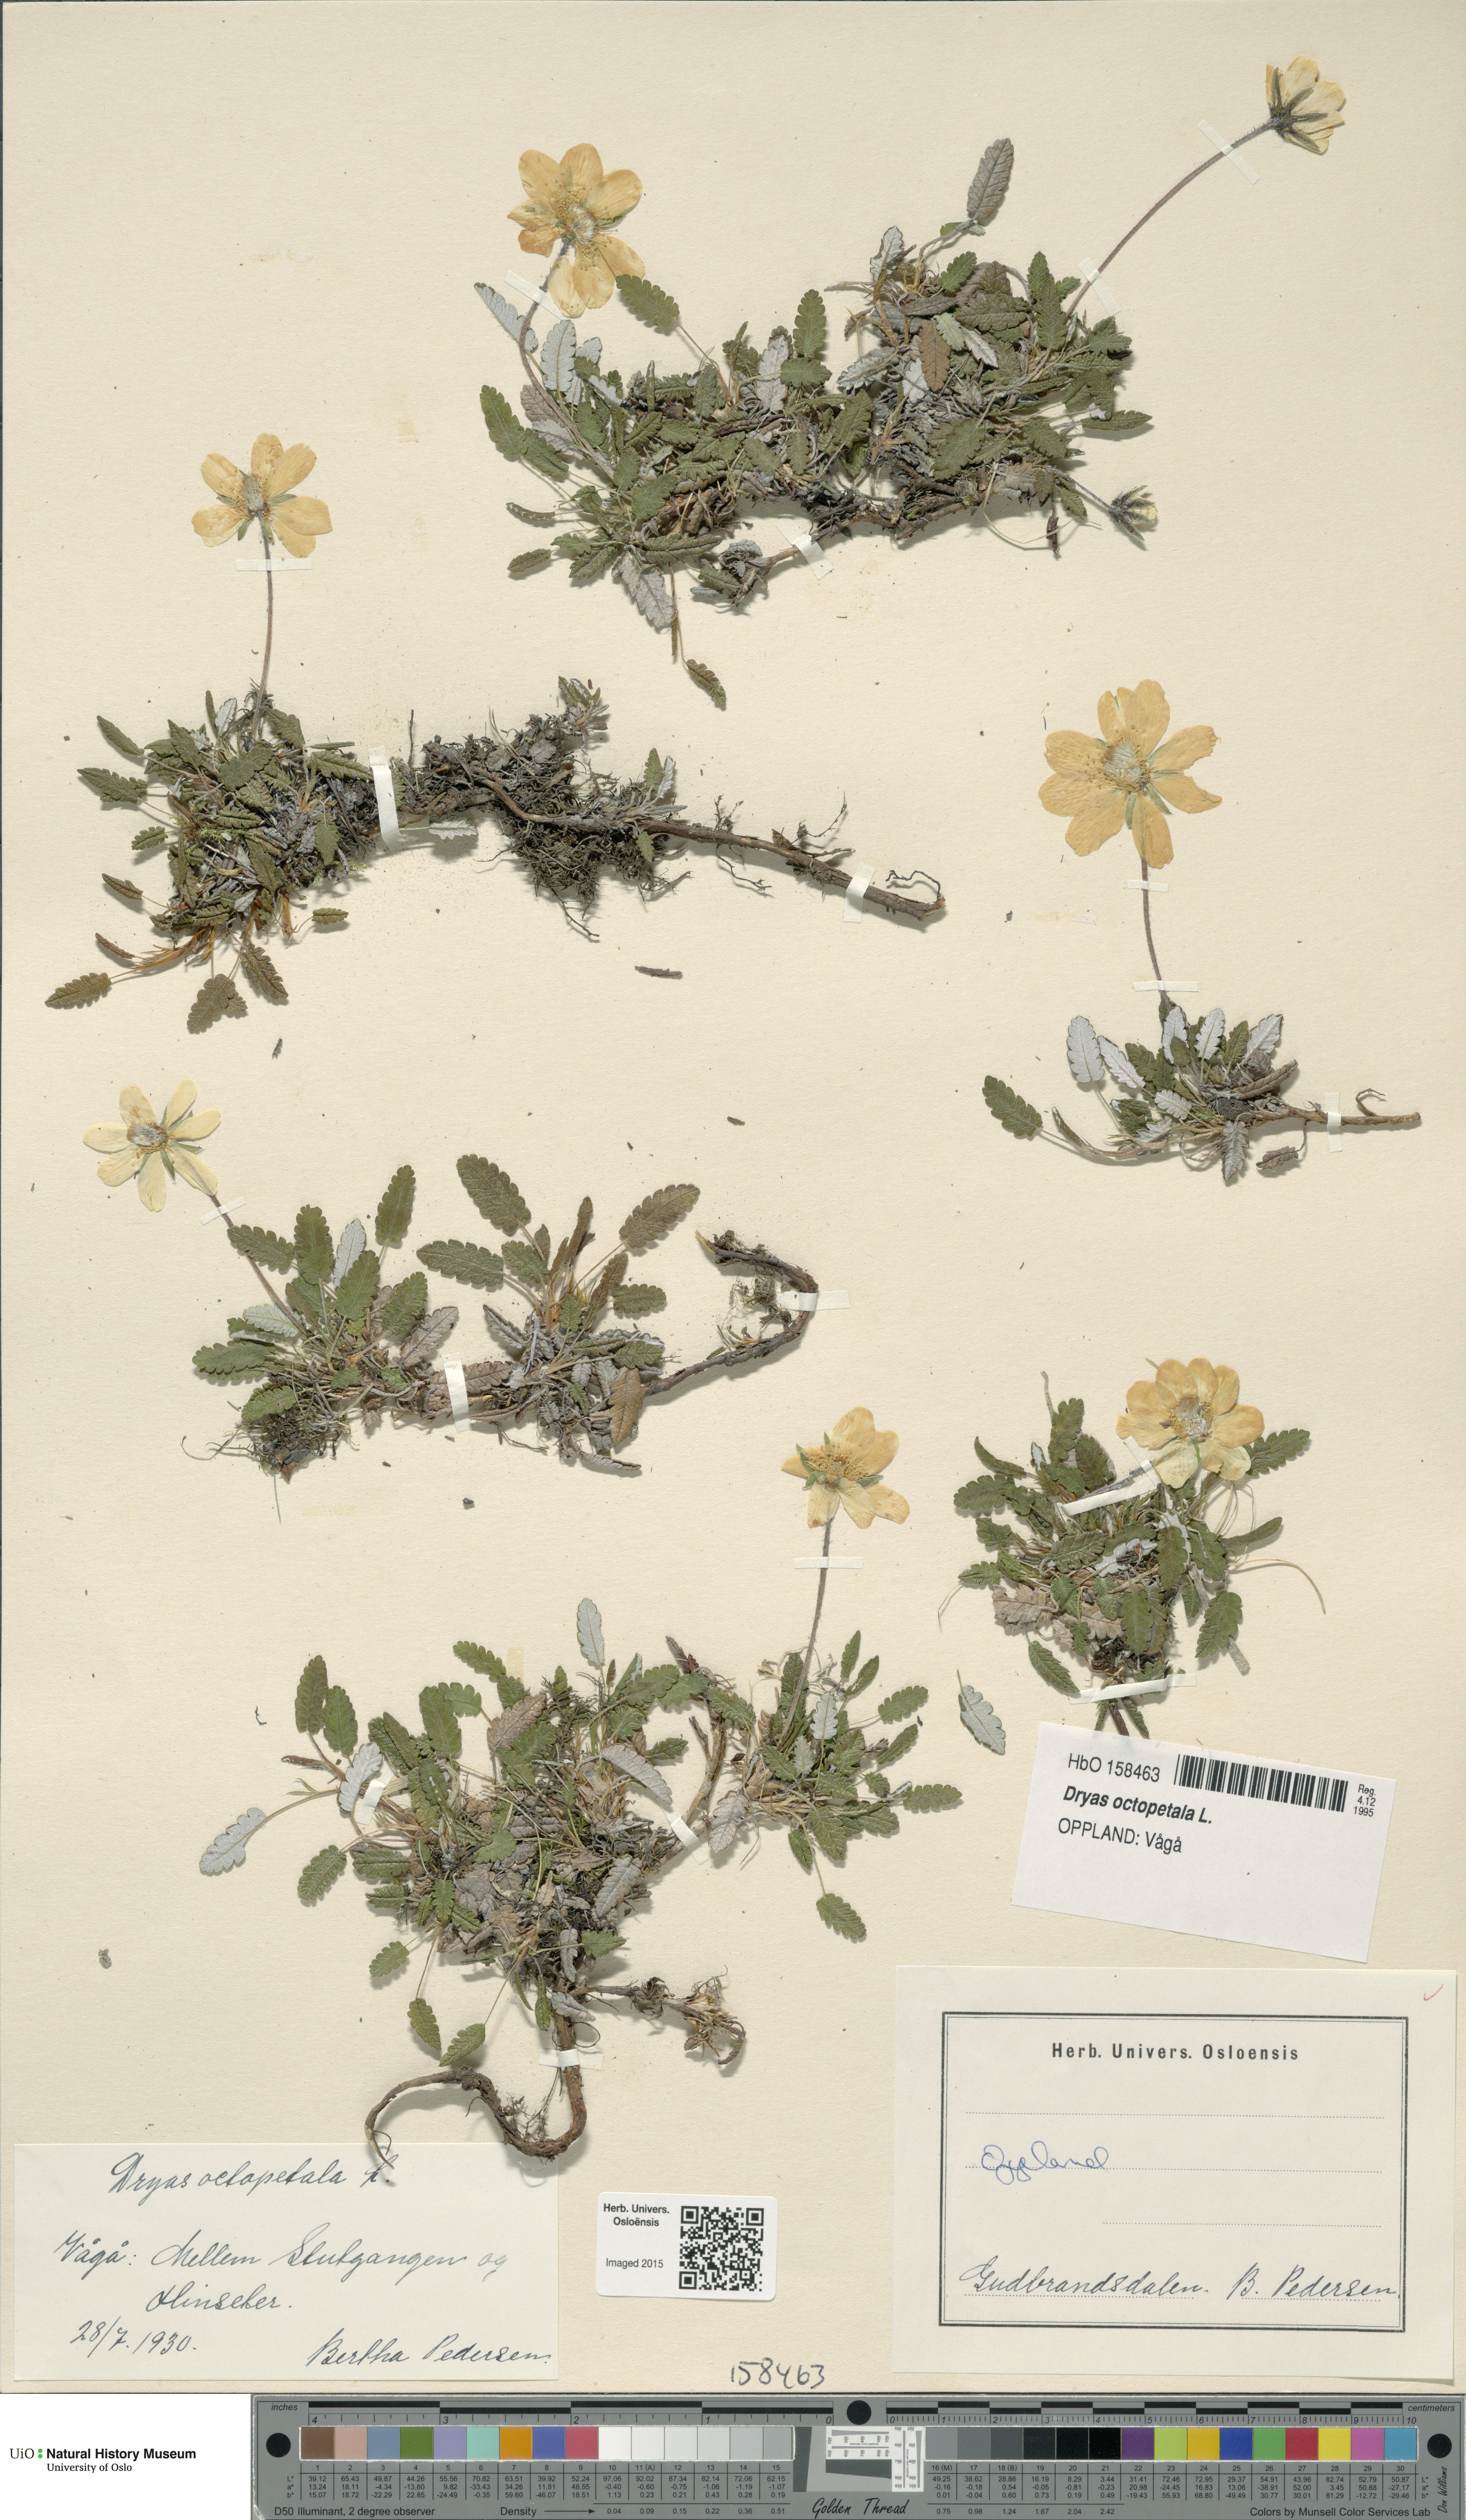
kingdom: Plantae
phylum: Tracheophyta
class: Magnoliopsida
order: Rosales
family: Rosaceae
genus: Dryas
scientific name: Dryas octopetala
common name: Eight-petal mountain-avens
